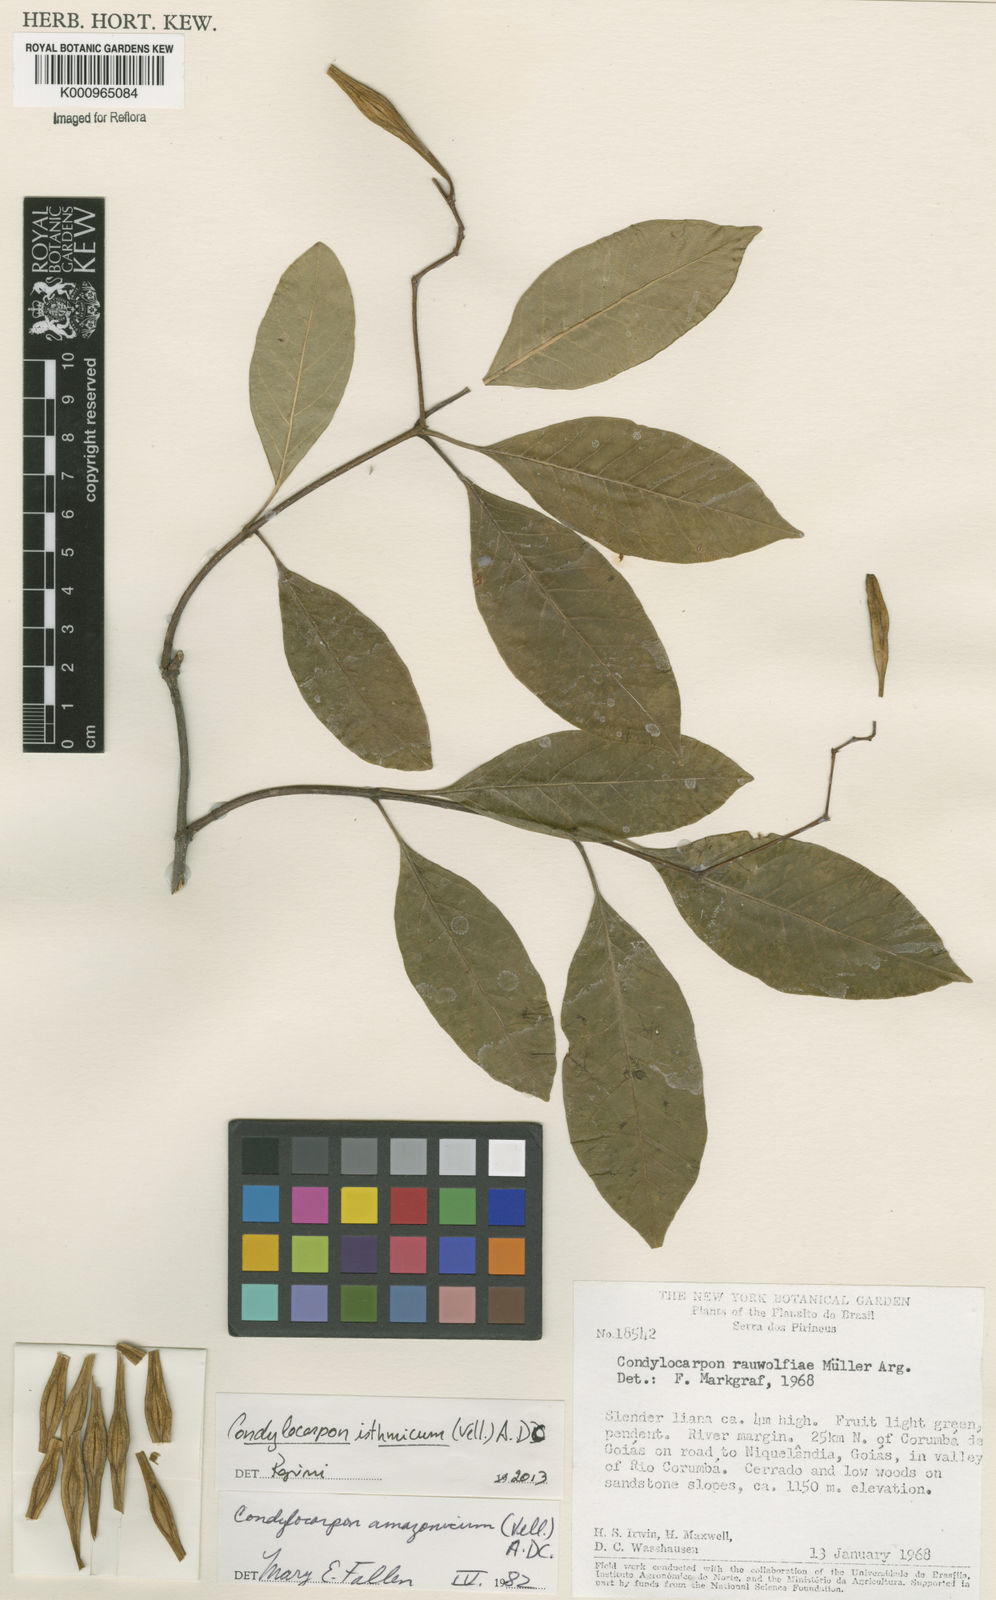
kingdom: Plantae
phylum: Tracheophyta
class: Magnoliopsida
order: Gentianales
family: Apocynaceae
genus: Condylocarpon
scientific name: Condylocarpon isthmicum
